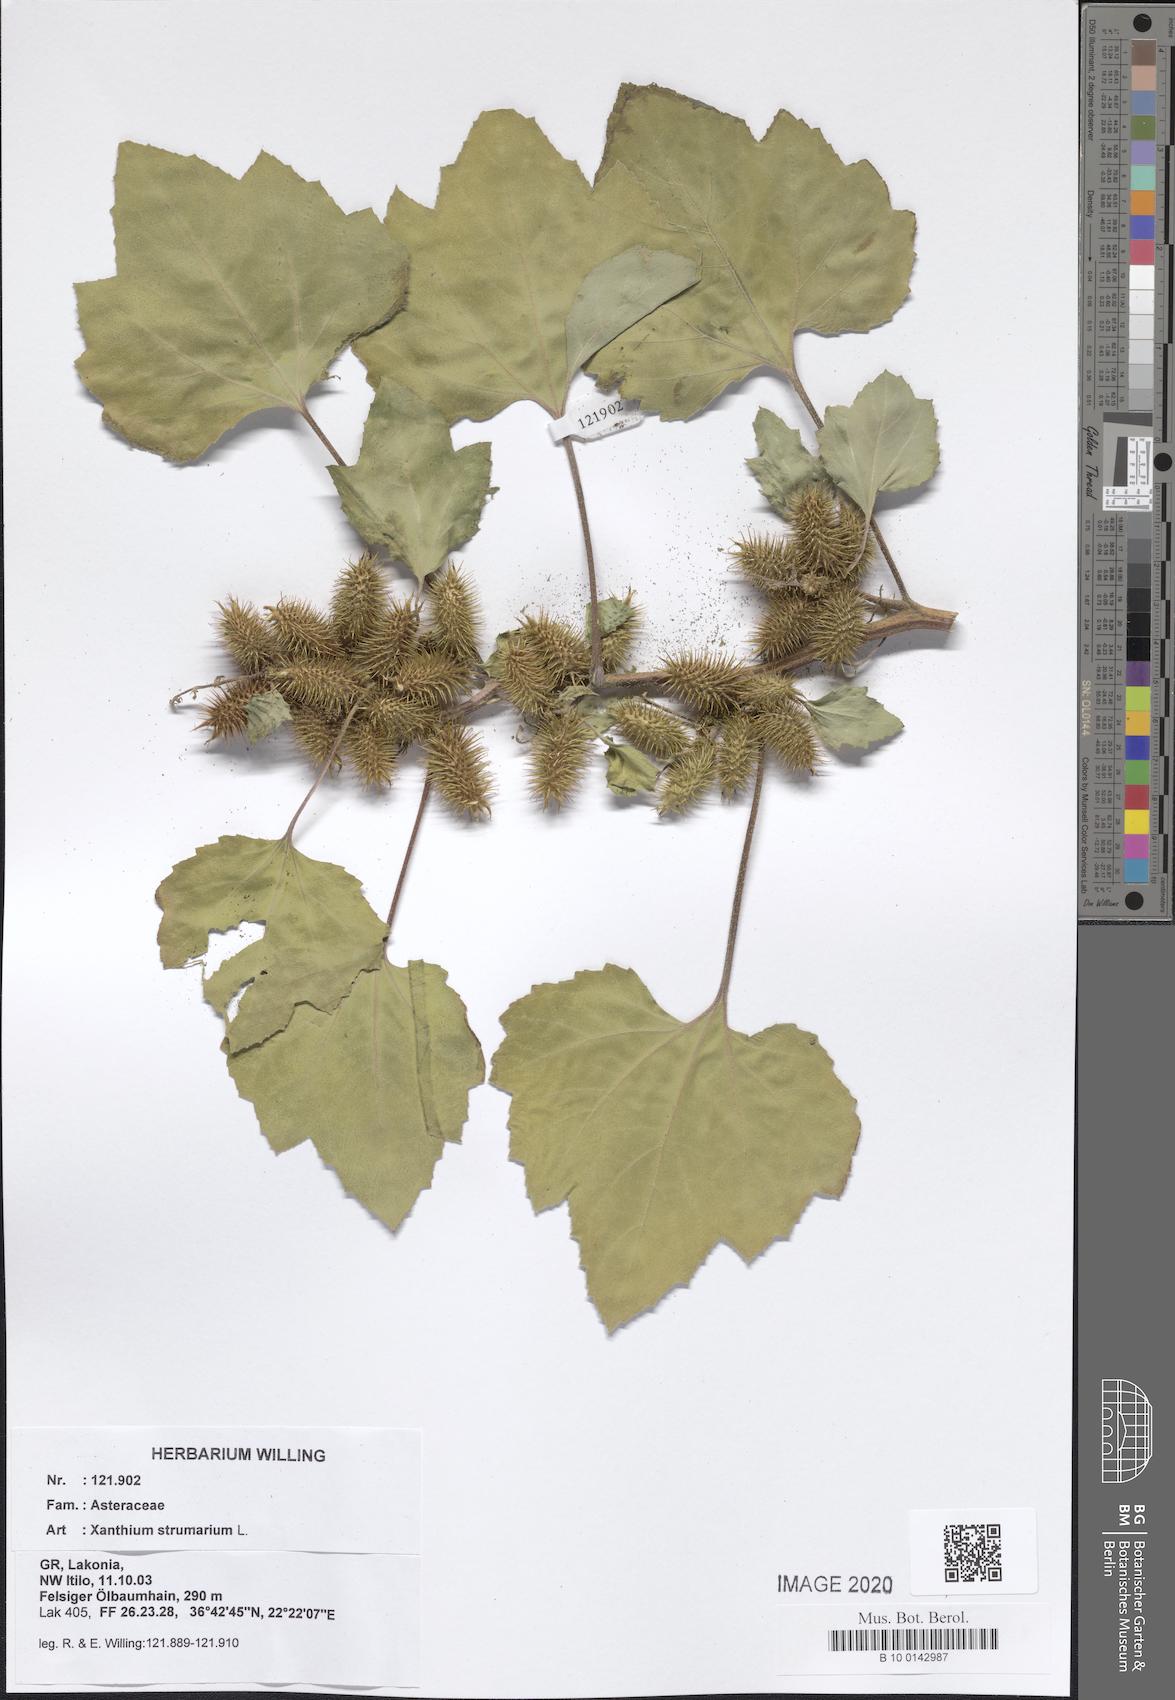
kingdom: Plantae
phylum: Tracheophyta
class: Magnoliopsida
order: Asterales
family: Asteraceae
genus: Xanthium
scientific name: Xanthium strumarium
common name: Rough cocklebur
